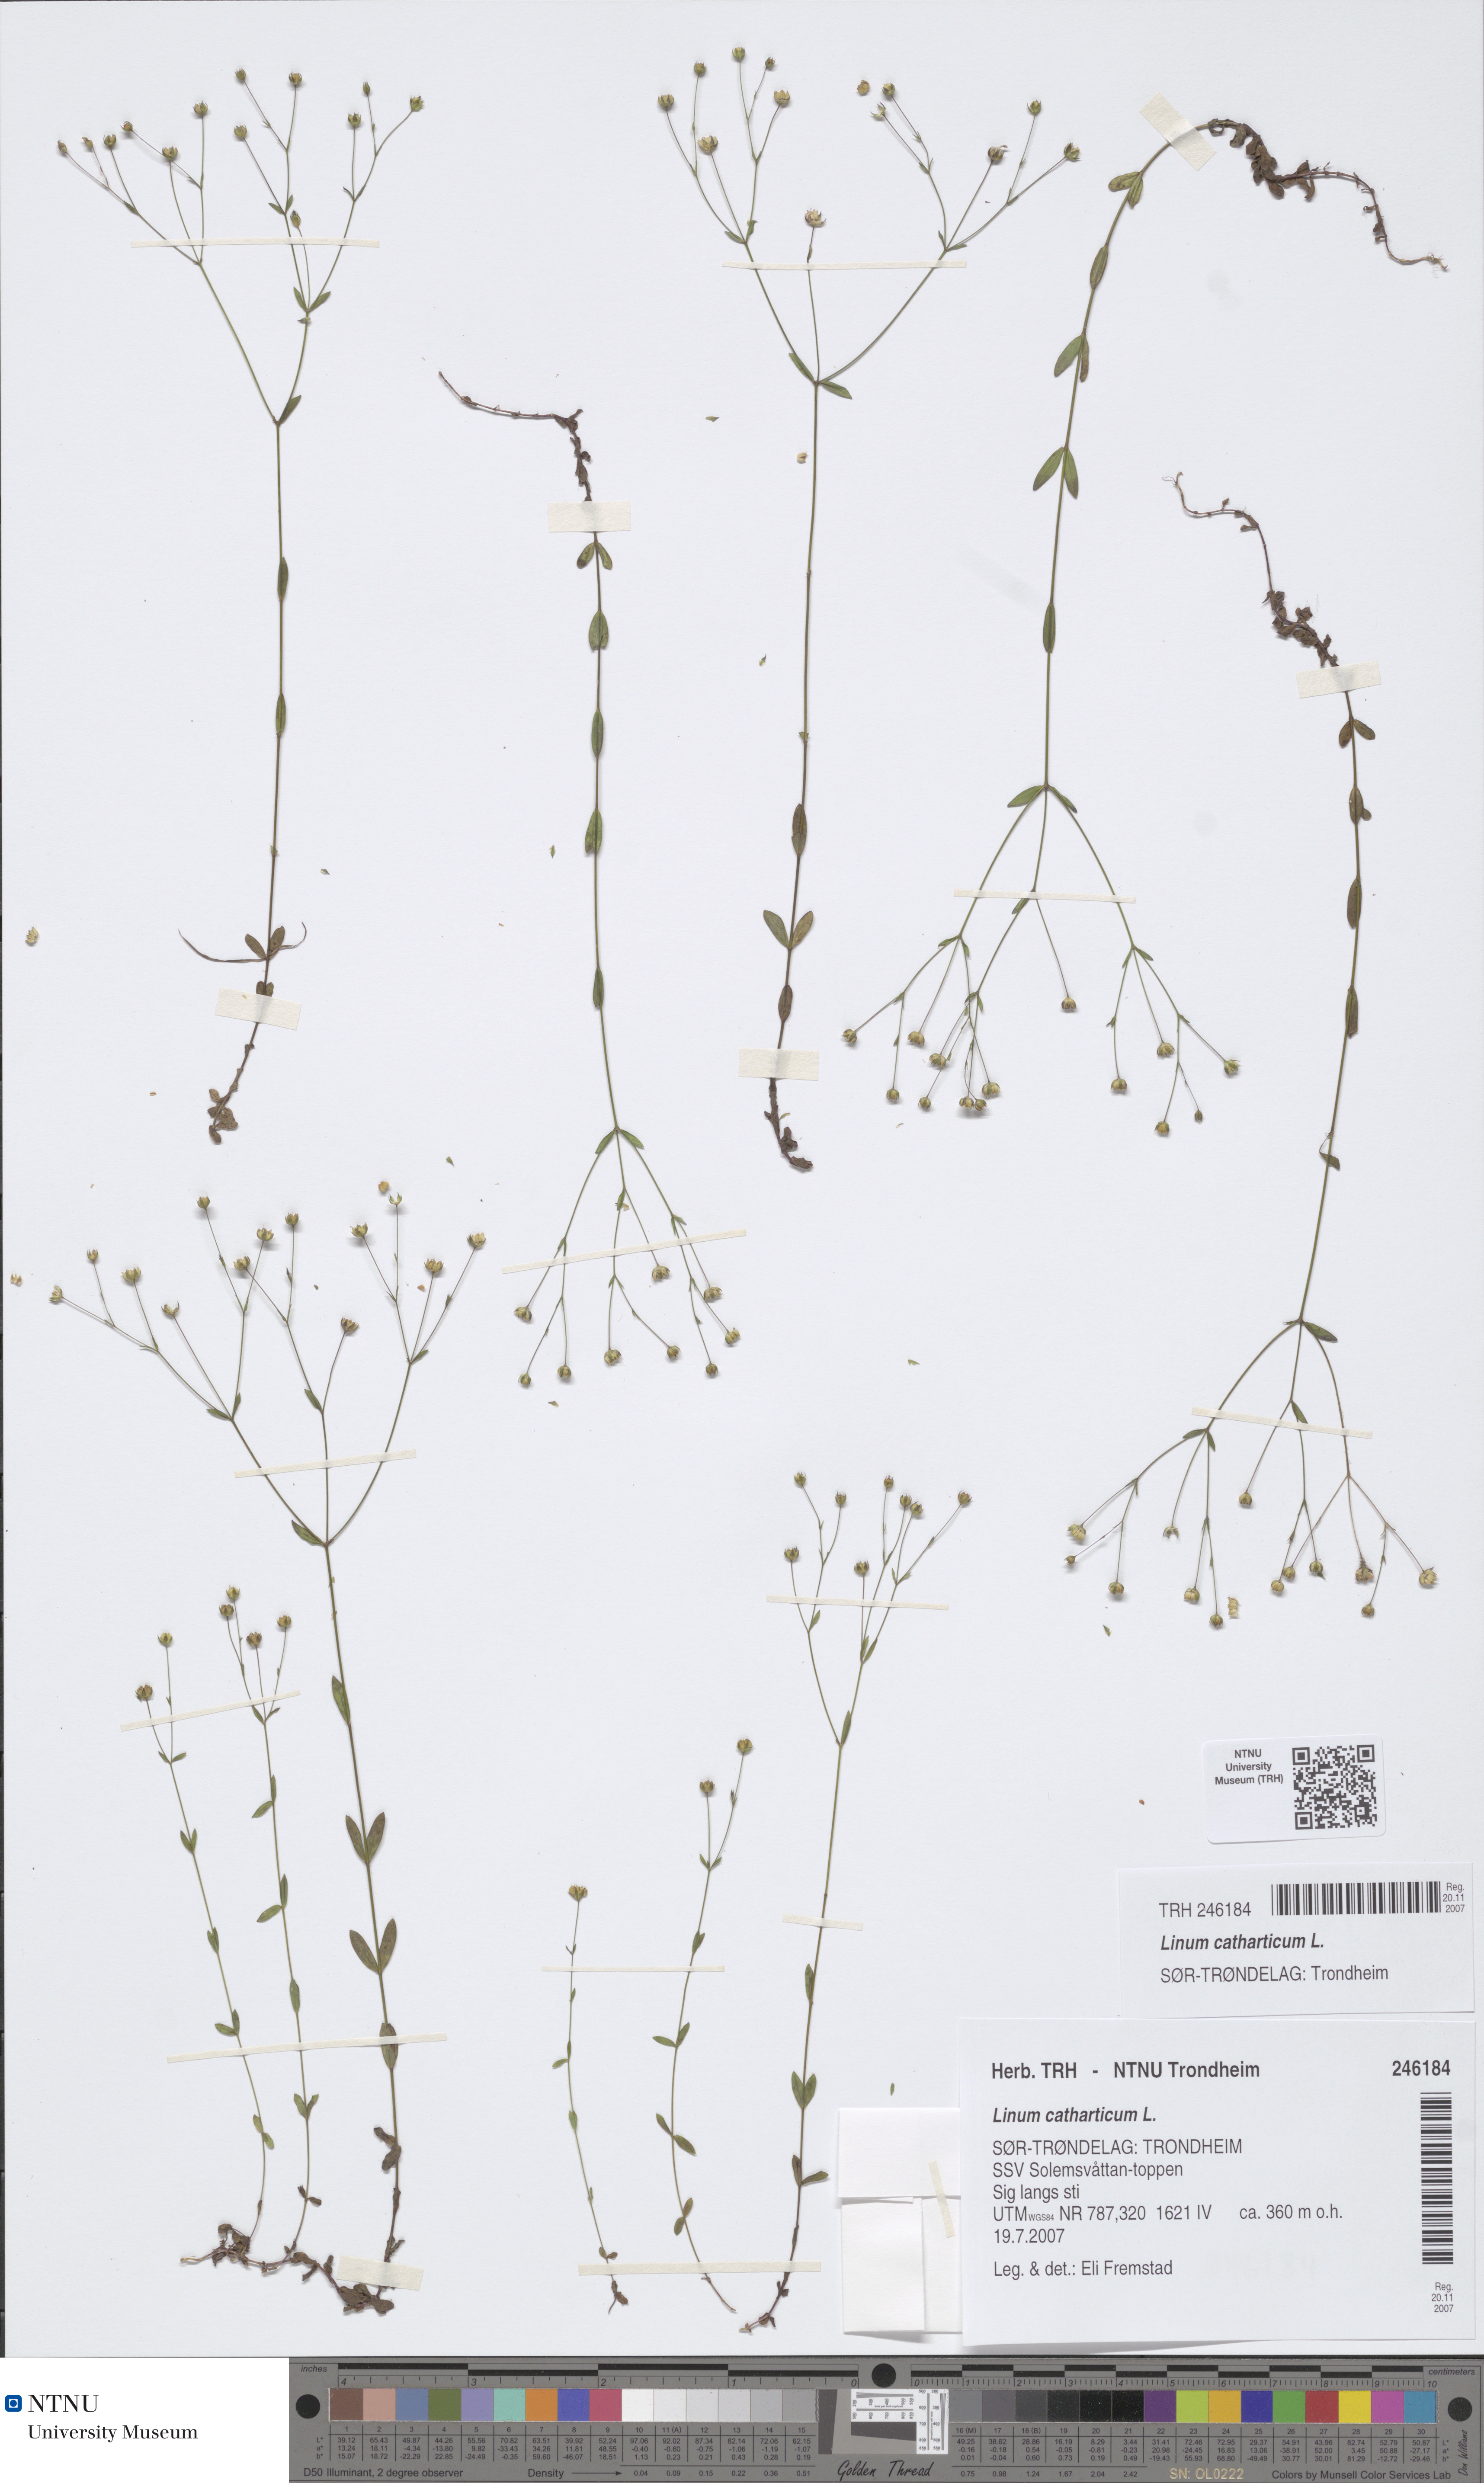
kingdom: Plantae
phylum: Tracheophyta
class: Magnoliopsida
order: Malpighiales
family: Linaceae
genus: Linum
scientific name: Linum catharticum
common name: Fairy flax
